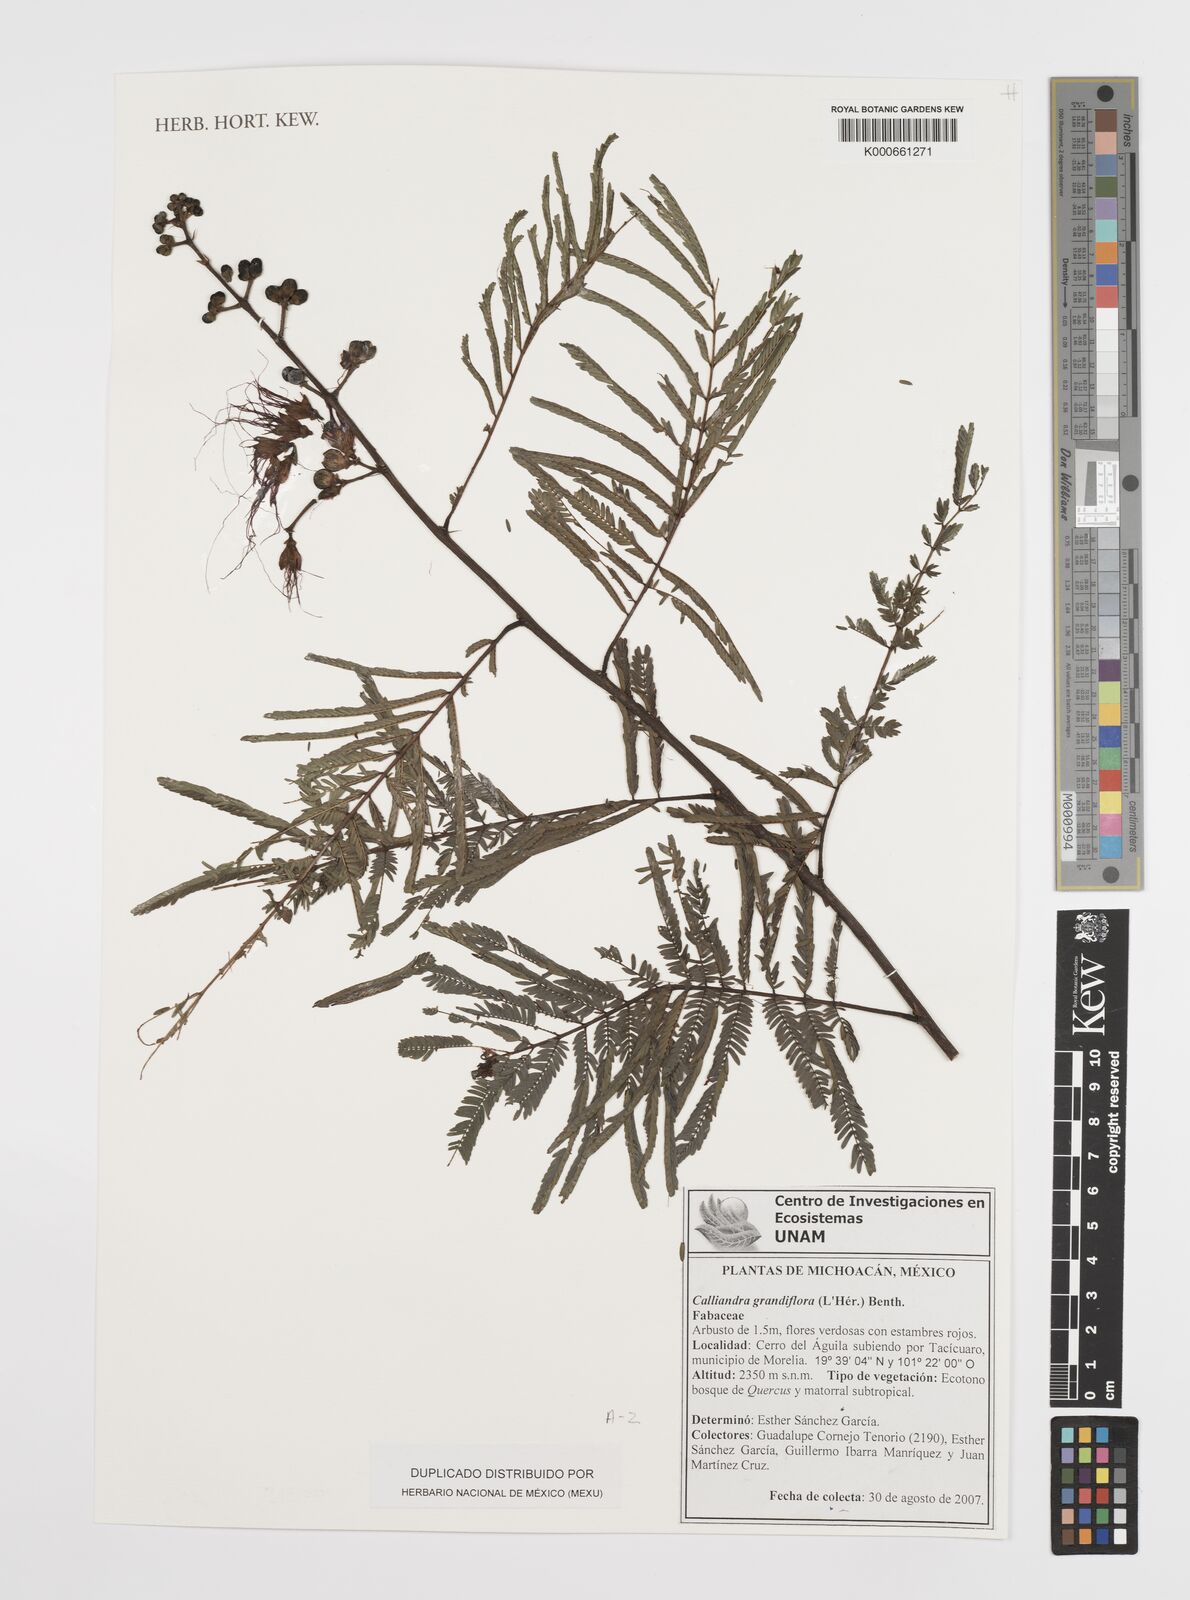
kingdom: Plantae
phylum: Tracheophyta
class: Magnoliopsida
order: Fabales
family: Fabaceae
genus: Calliandra
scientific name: Calliandra
